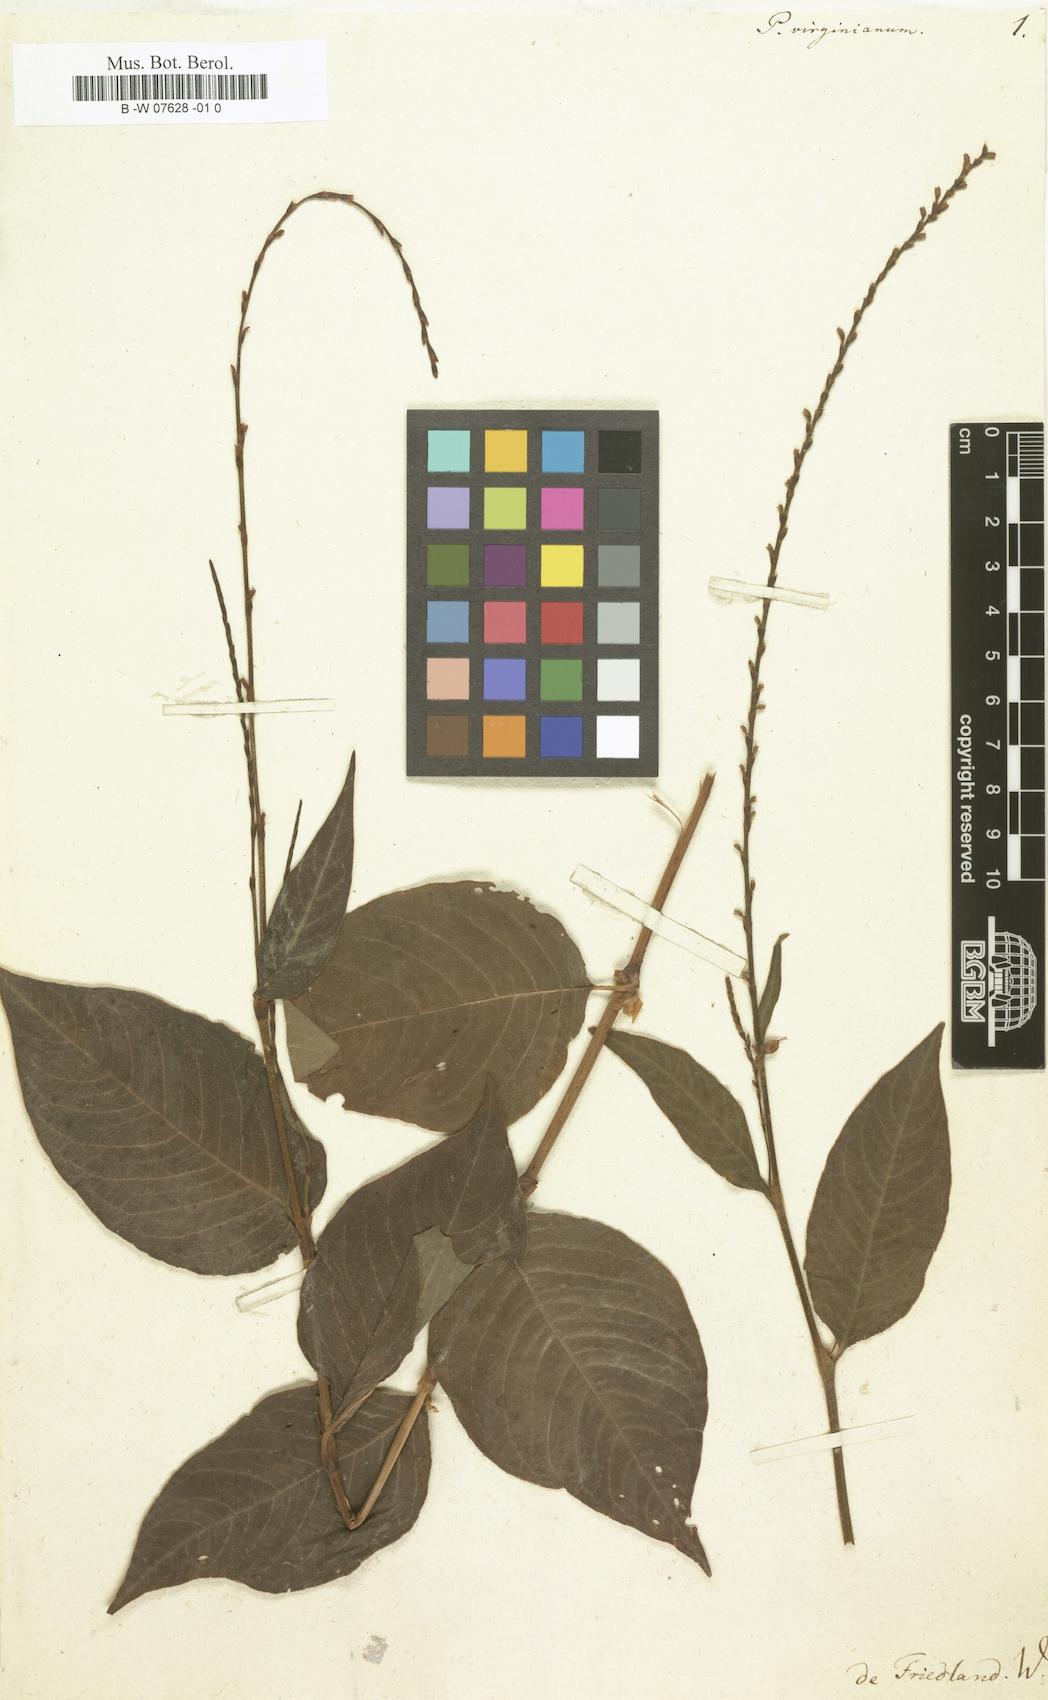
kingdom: Plantae
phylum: Tracheophyta
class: Magnoliopsida
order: Caryophyllales
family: Polygonaceae
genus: Persicaria
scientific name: Persicaria virginiana
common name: Jumpseed
